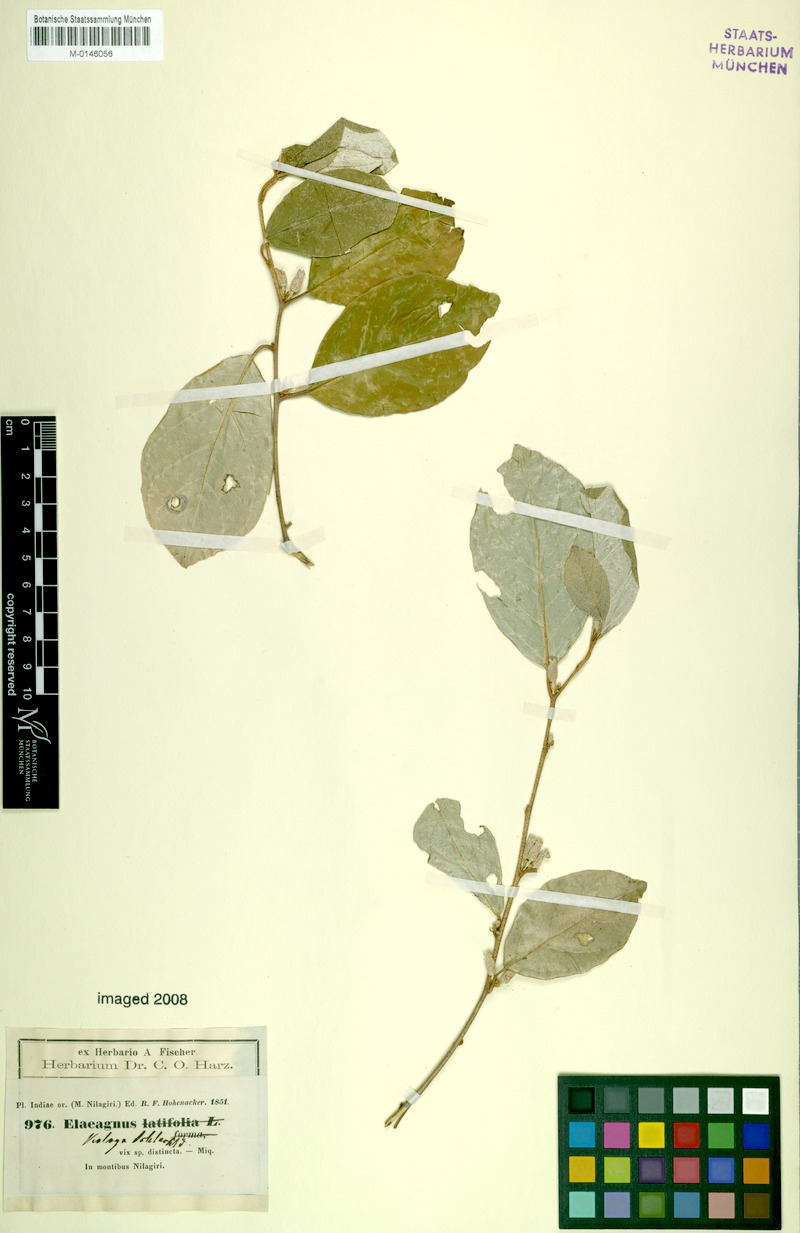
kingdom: Plantae
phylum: Tracheophyta
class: Magnoliopsida
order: Rosales
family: Elaeagnaceae
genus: Elaeagnus
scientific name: Elaeagnus conferta
